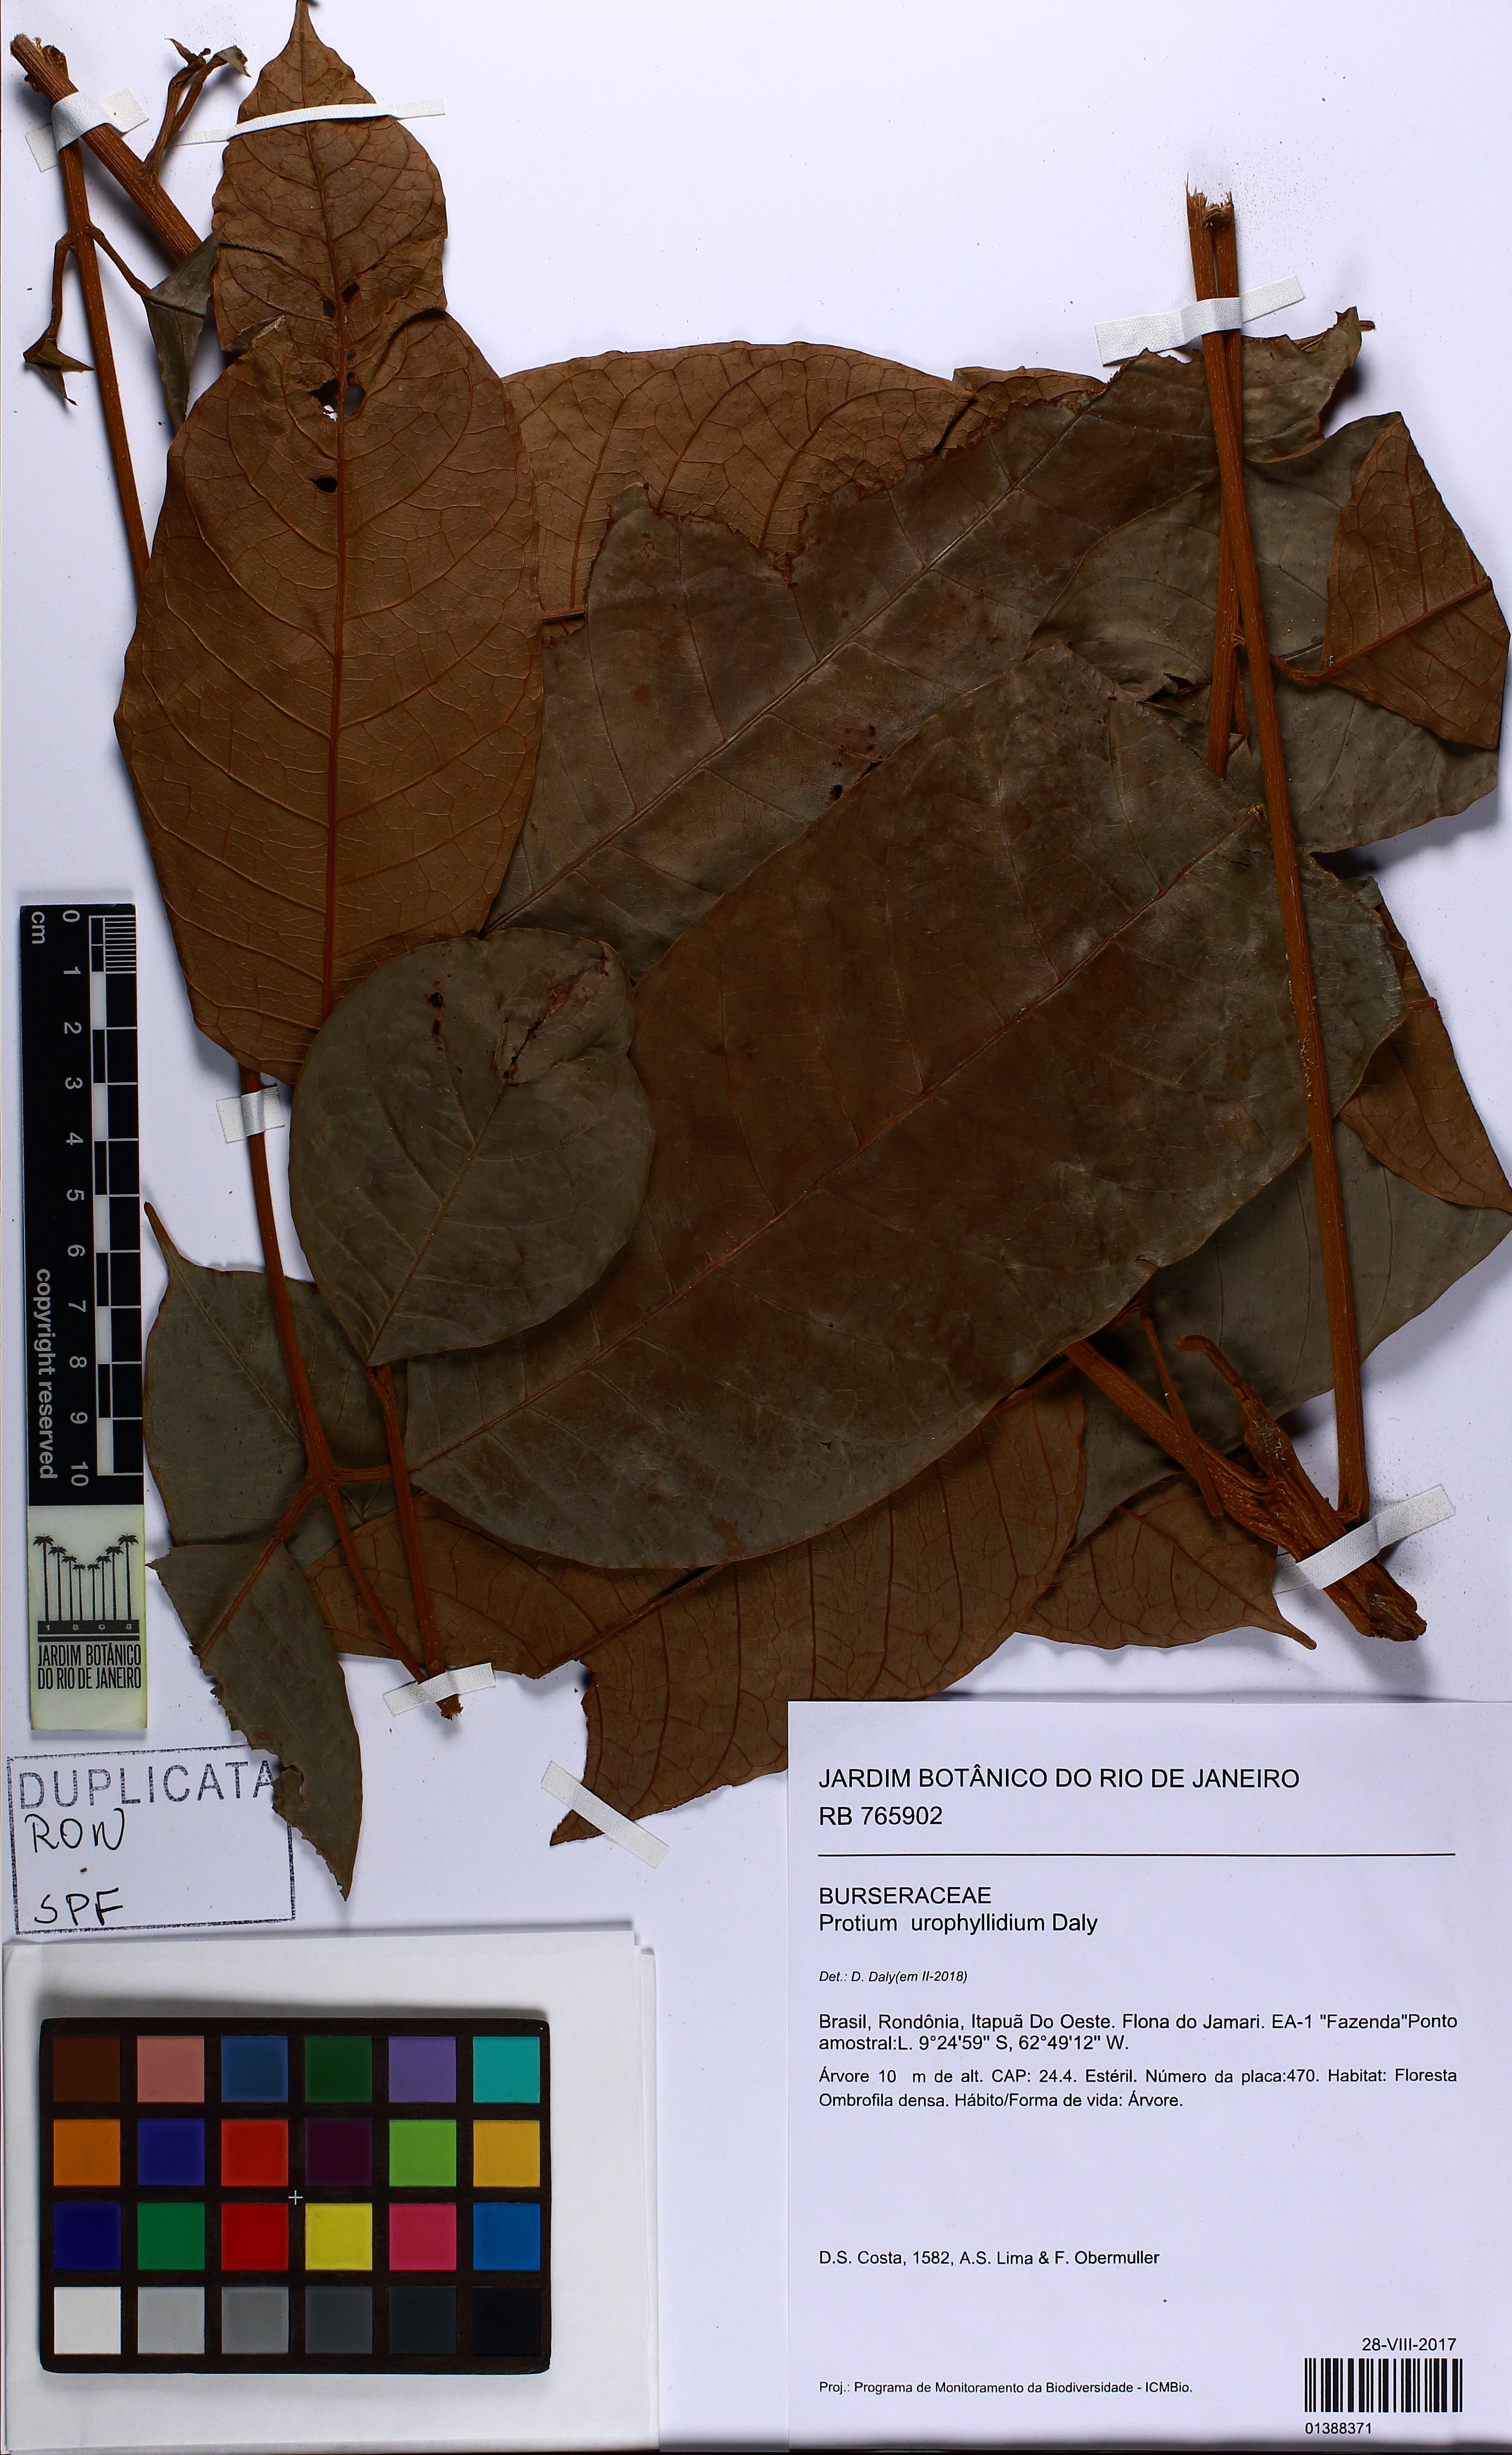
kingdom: Plantae
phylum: Tracheophyta
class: Magnoliopsida
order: Sapindales
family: Burseraceae
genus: Protium
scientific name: Protium urophyllidium
